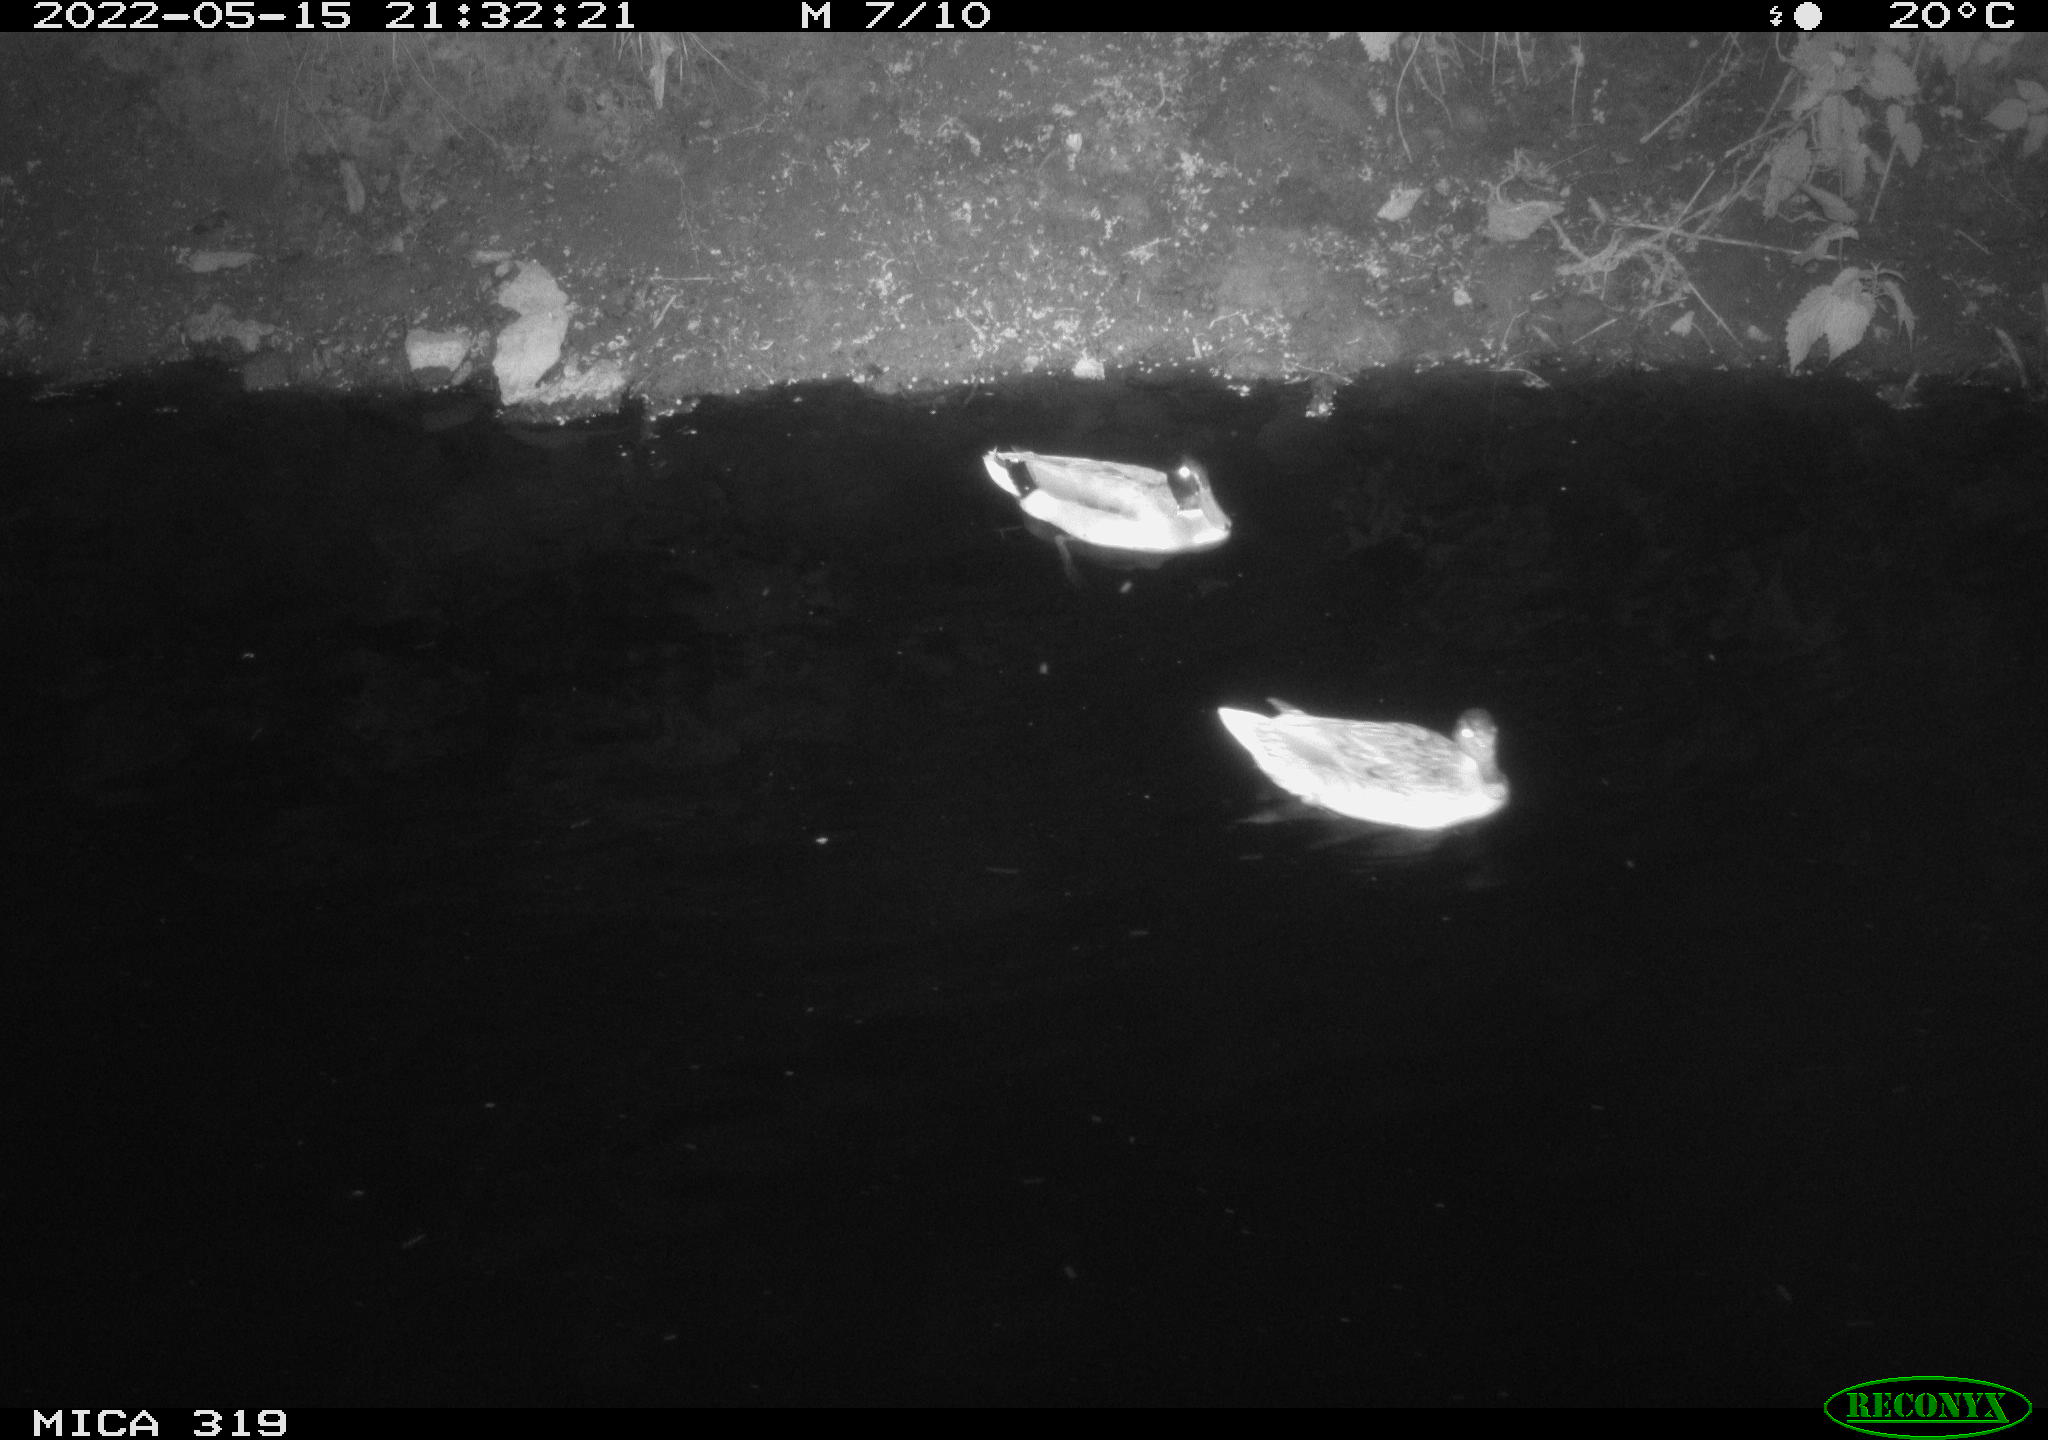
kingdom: Animalia
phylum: Chordata
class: Aves
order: Anseriformes
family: Anatidae
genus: Anas
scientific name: Anas
